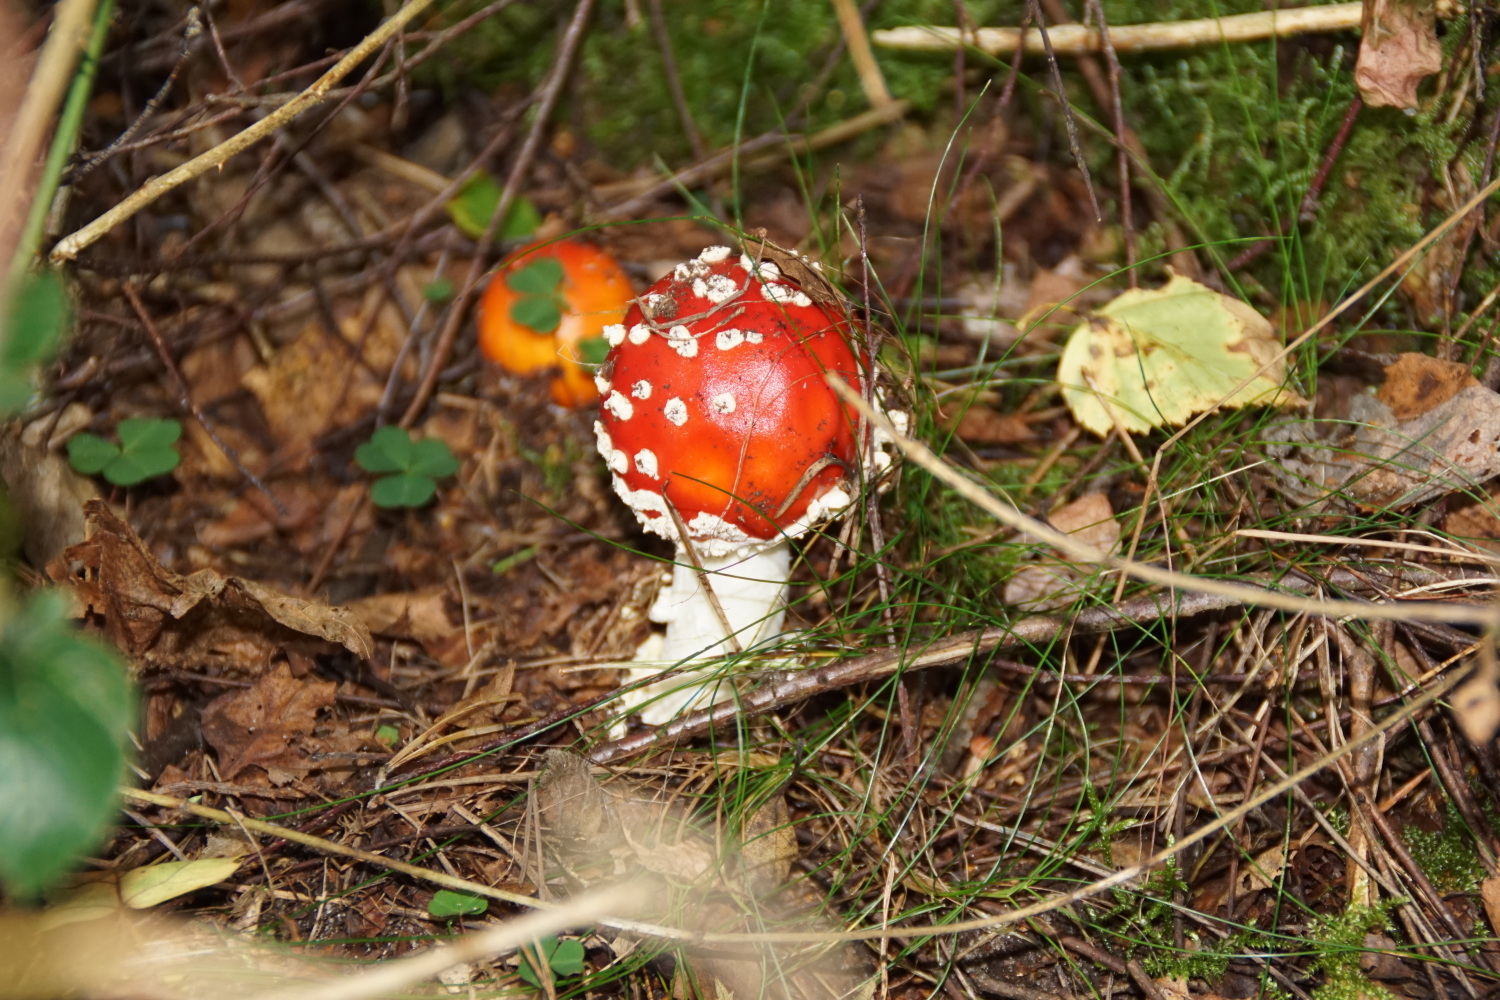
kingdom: Fungi
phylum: Basidiomycota
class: Agaricomycetes
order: Agaricales
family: Amanitaceae
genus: Amanita
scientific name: Amanita muscaria
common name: rød fluesvamp
